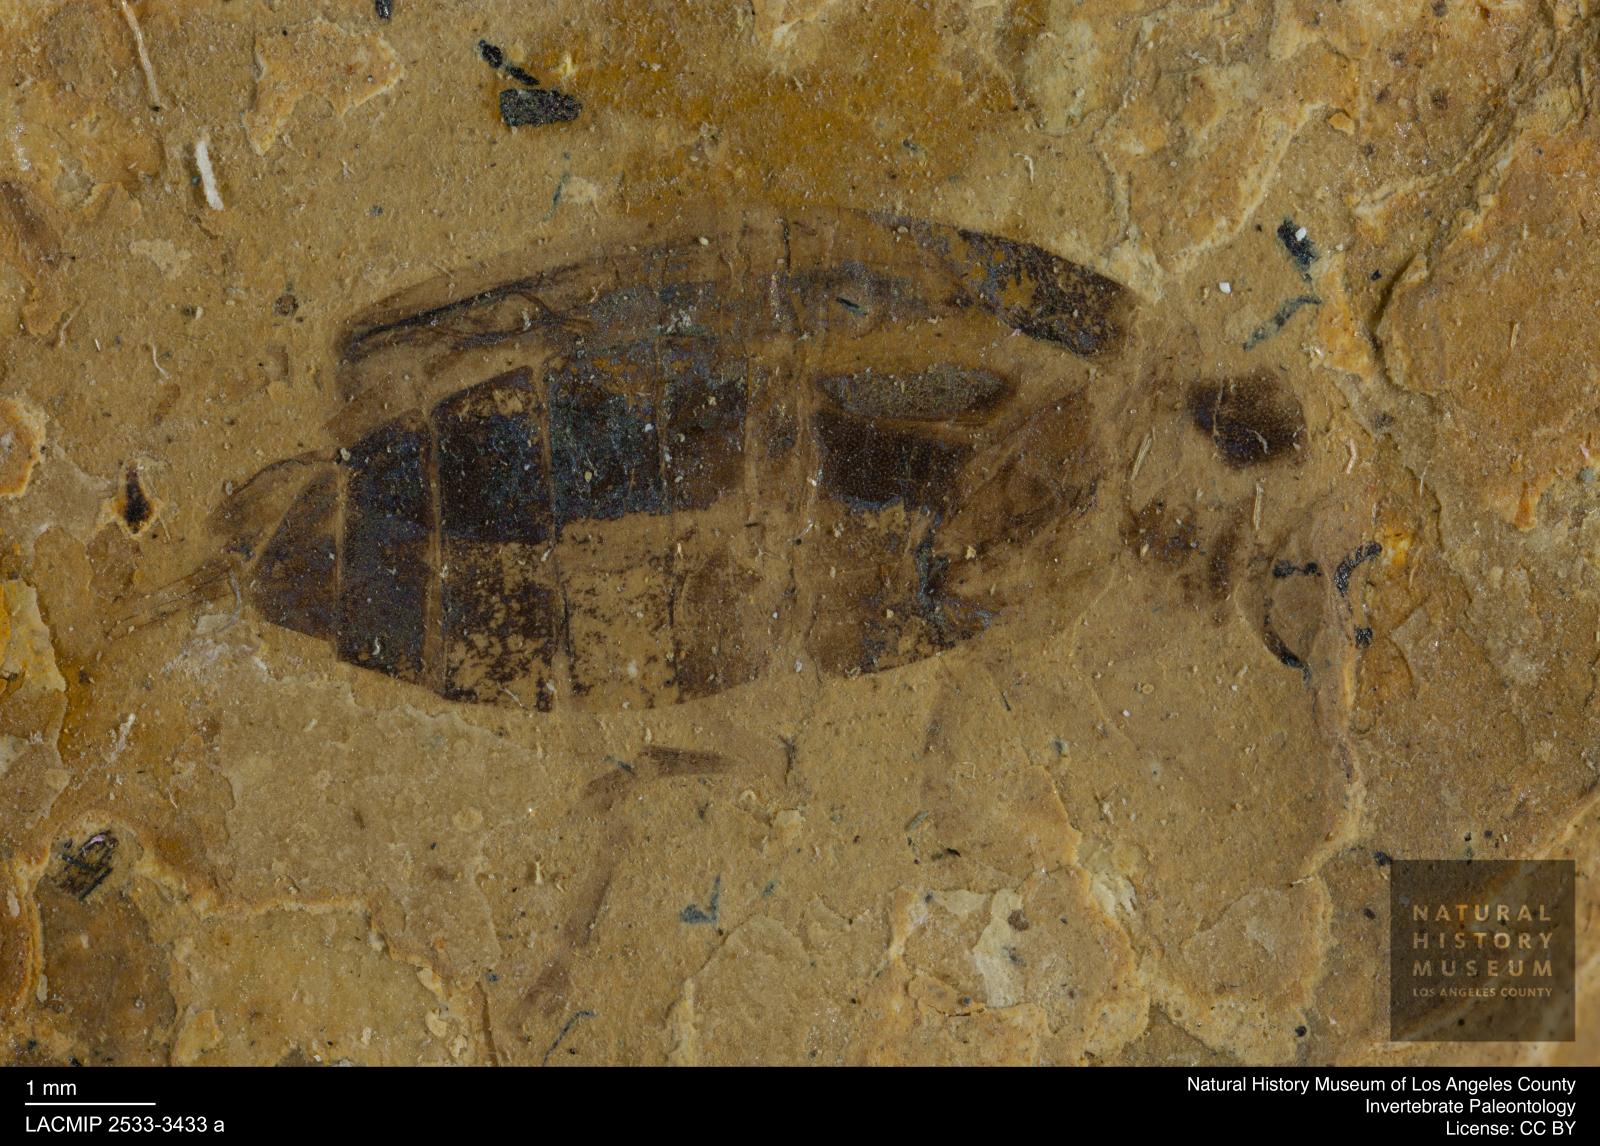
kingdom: Animalia
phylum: Arthropoda
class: Insecta
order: Coleoptera
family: Cantharidae
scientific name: Cantharidae
